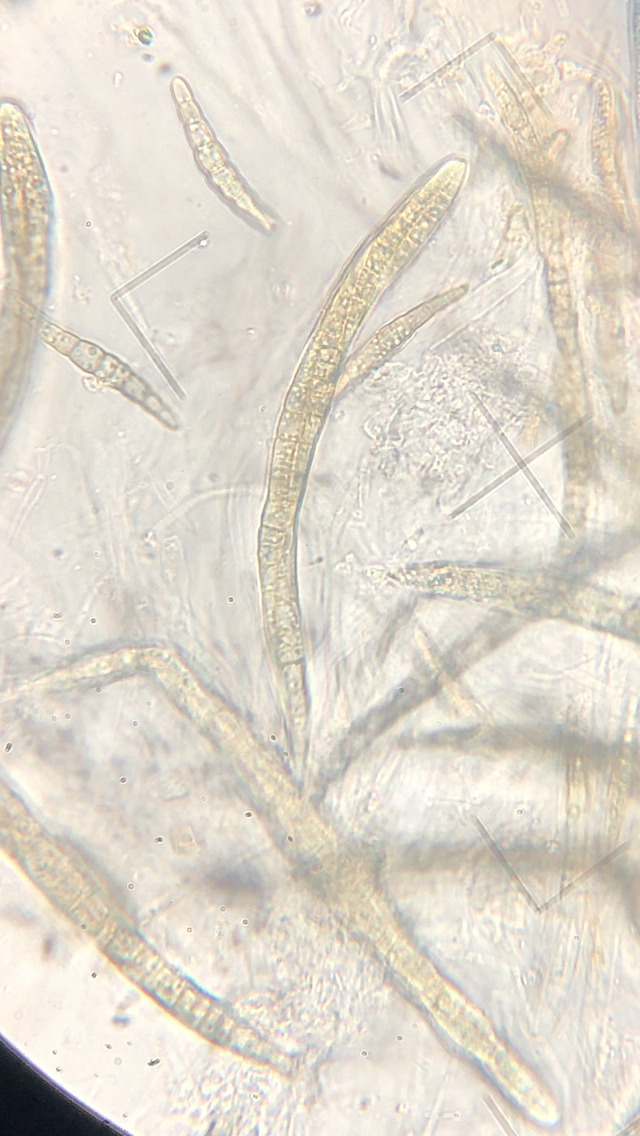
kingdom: Fungi
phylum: Ascomycota
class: Dothideomycetes
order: Pleosporales
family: Leptosphaeriaceae
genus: Leptosphaeria
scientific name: Leptosphaeria acuta
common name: spids kulkegle
